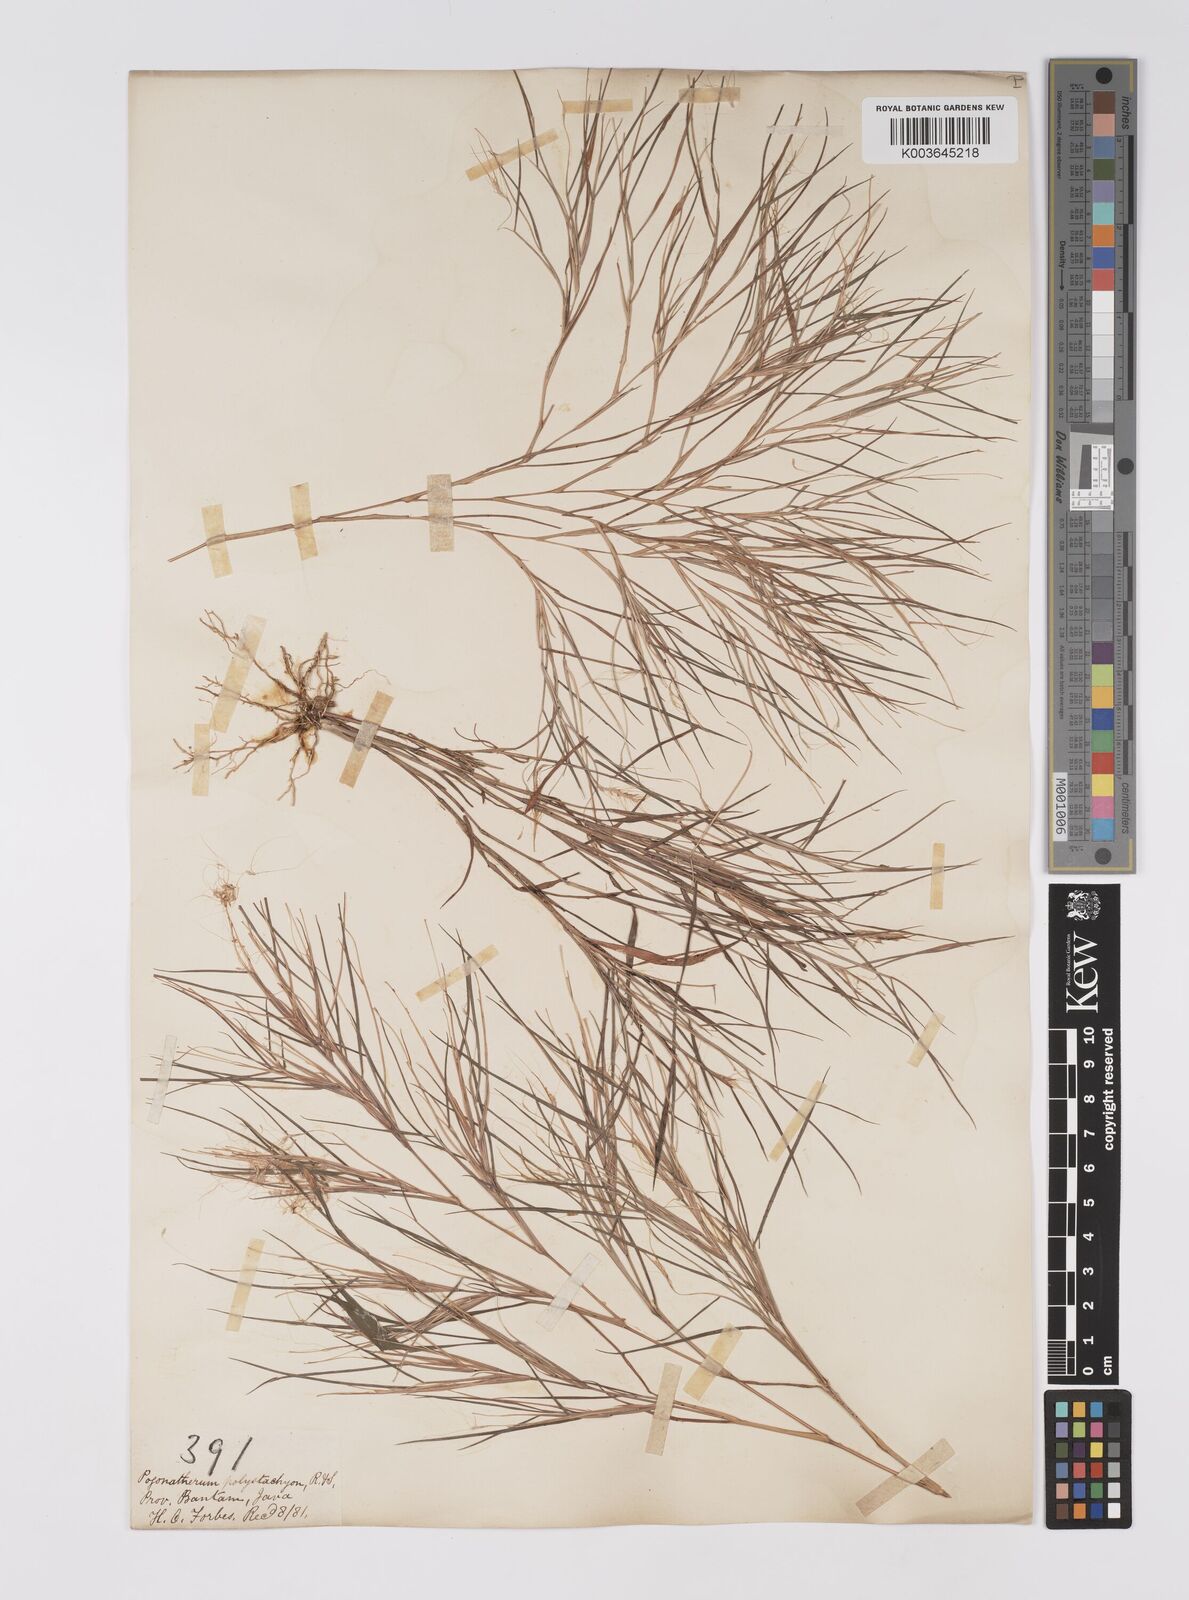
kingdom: Plantae
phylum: Tracheophyta
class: Liliopsida
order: Poales
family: Poaceae
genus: Pogonatherum
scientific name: Pogonatherum paniceum
